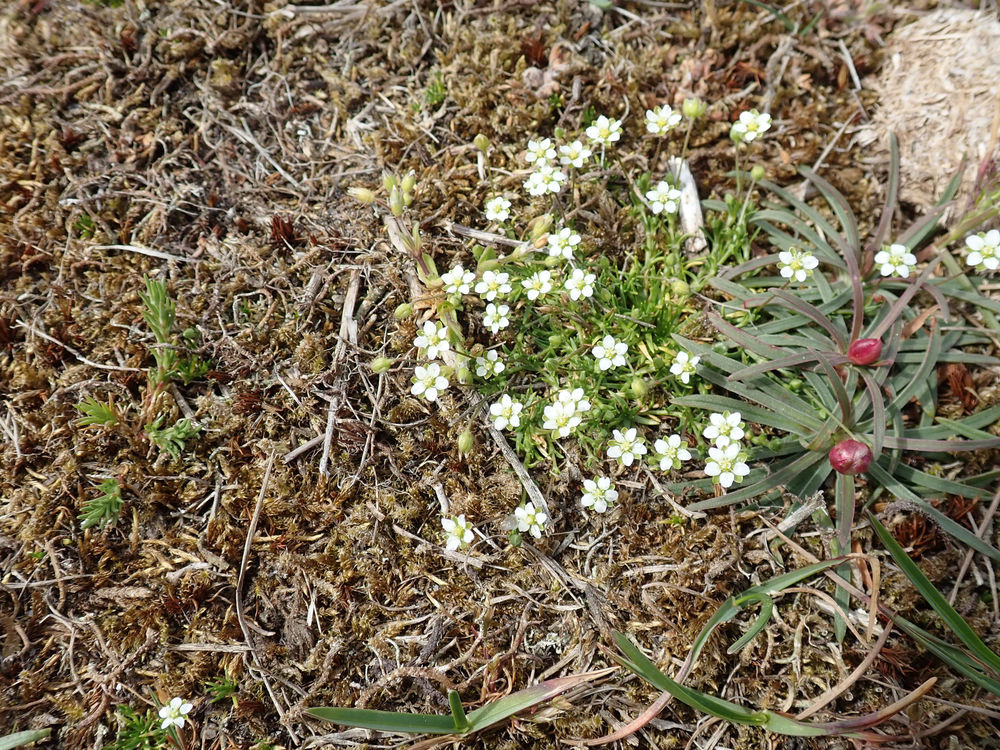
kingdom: Plantae
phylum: Tracheophyta
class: Magnoliopsida
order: Caryophyllales
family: Caryophyllaceae
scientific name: Caryophyllaceae
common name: Syl-firling
